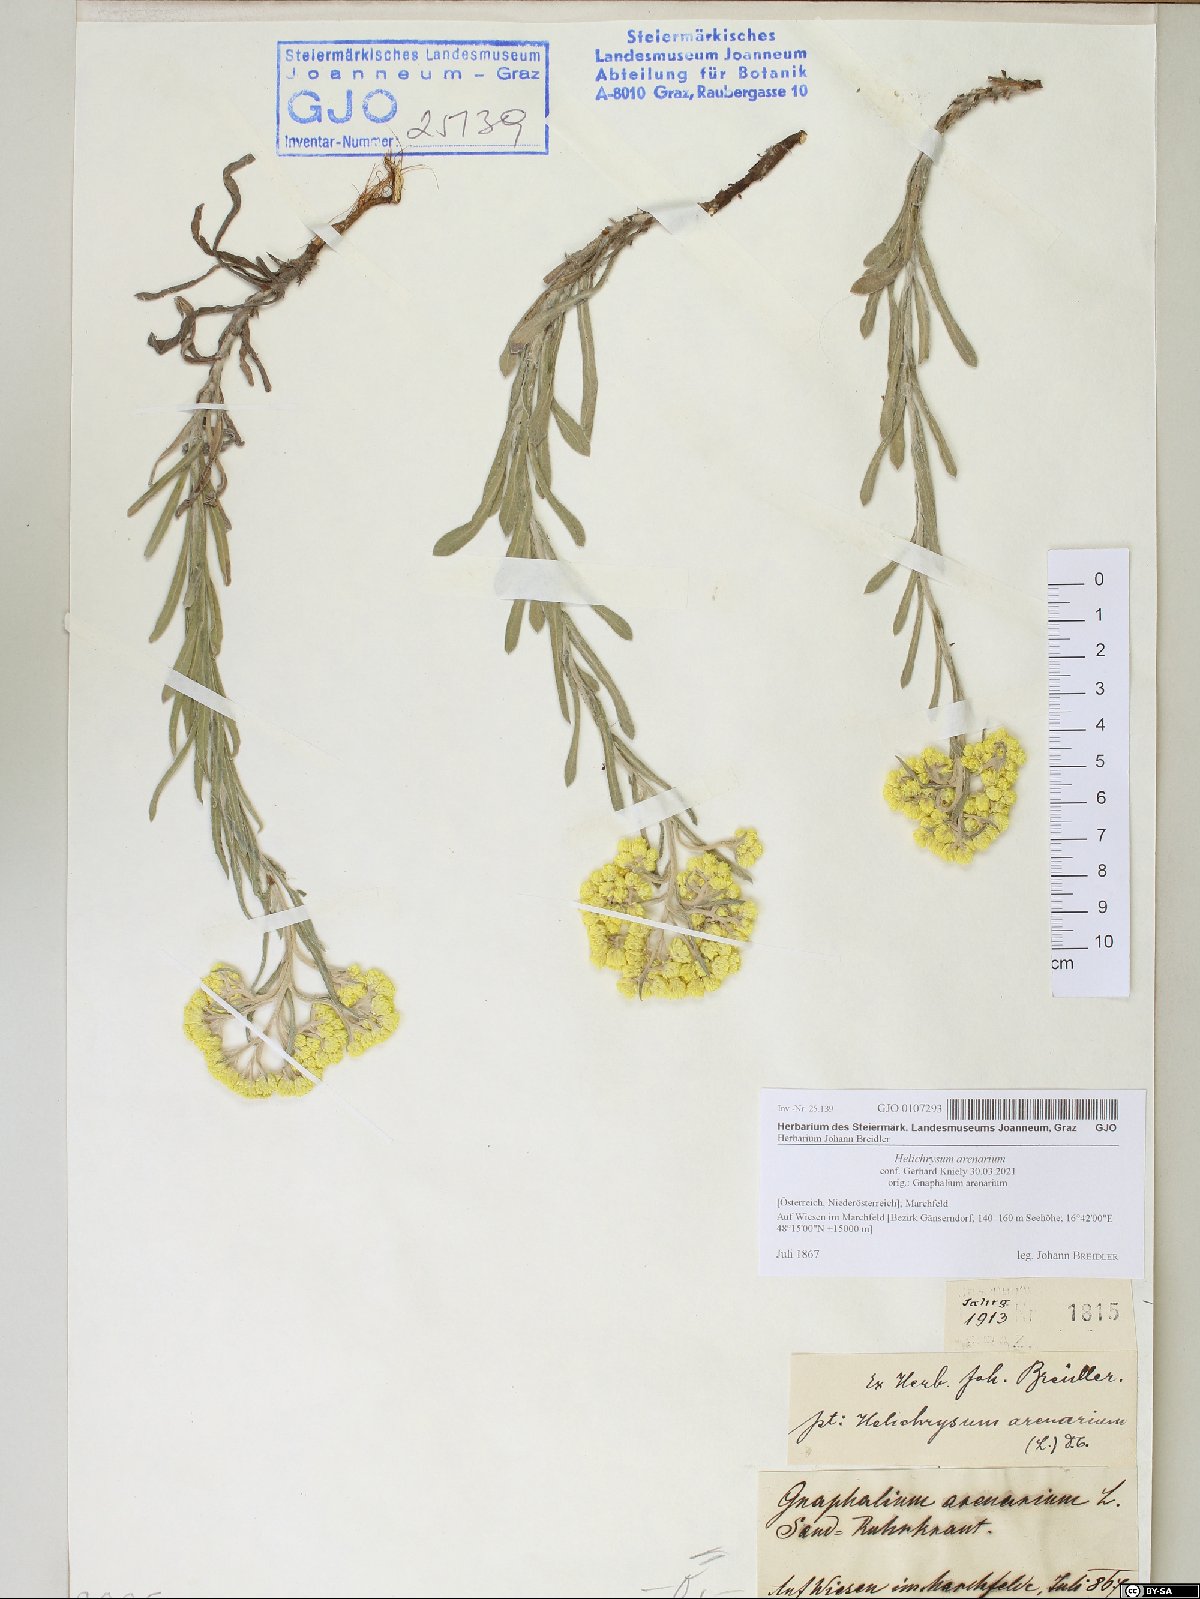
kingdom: Plantae
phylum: Tracheophyta
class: Magnoliopsida
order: Asterales
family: Asteraceae
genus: Helichrysum
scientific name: Helichrysum arenarium
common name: Strawflower
